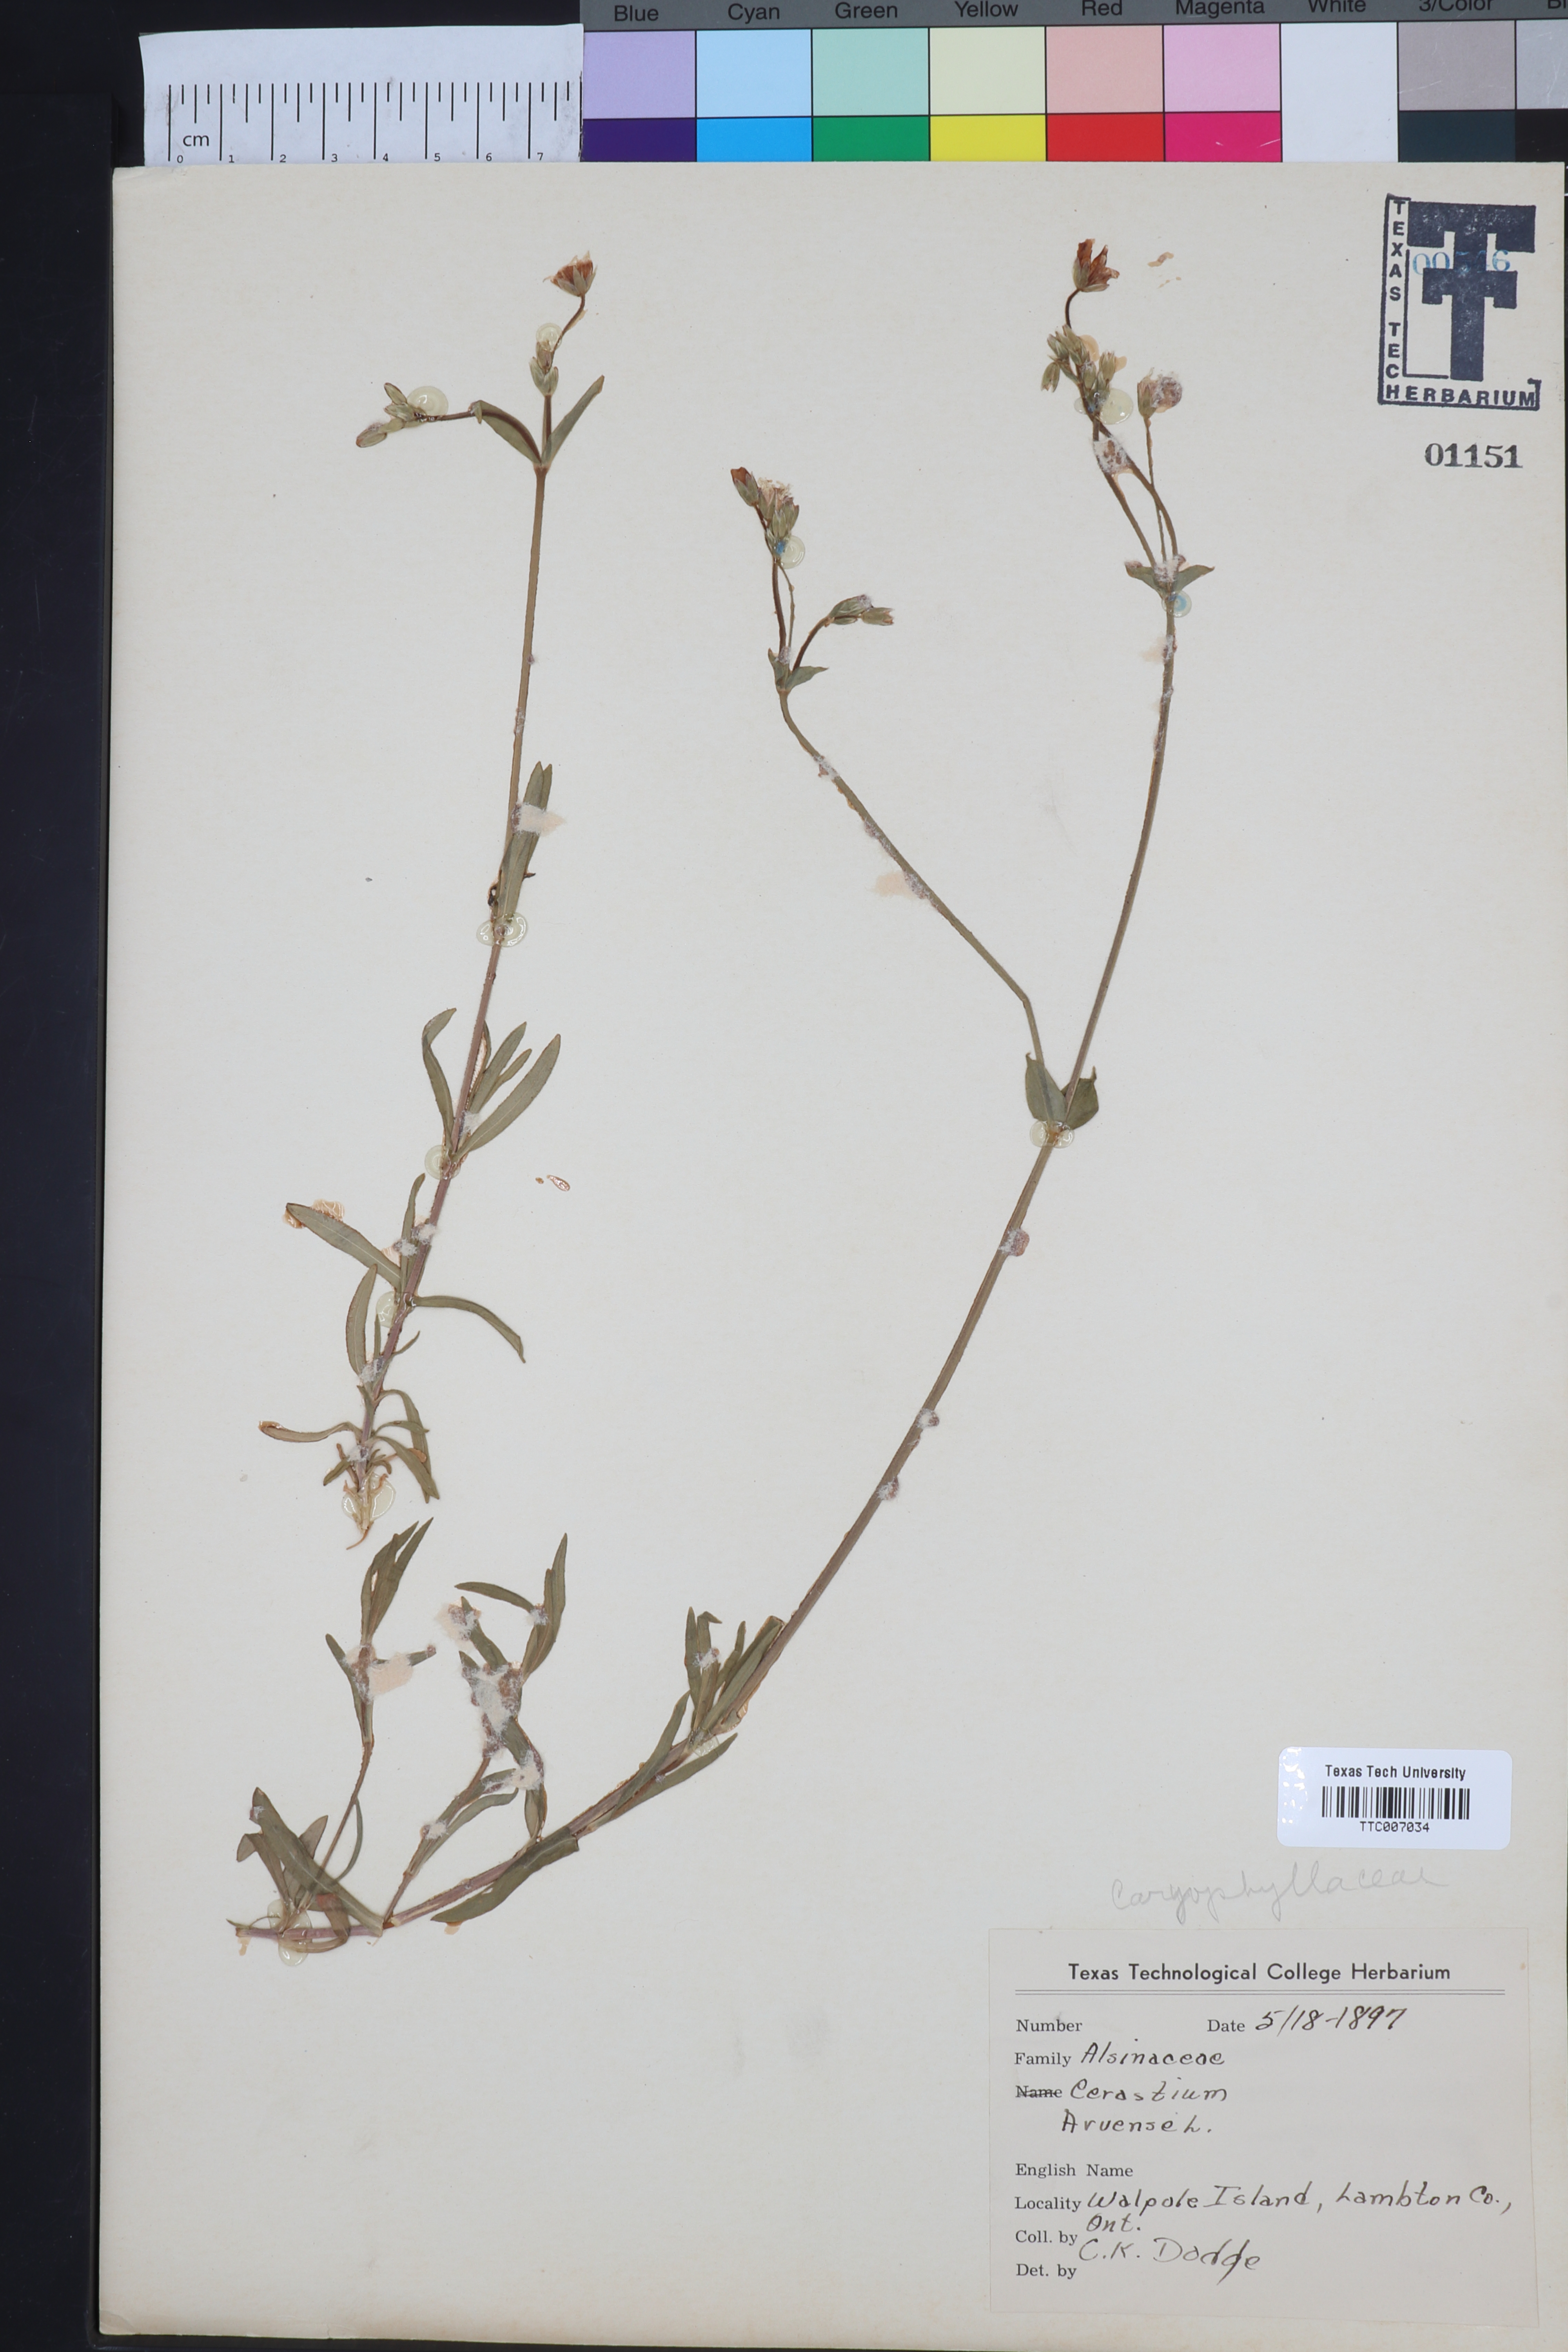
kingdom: Plantae
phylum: Tracheophyta
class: Magnoliopsida
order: Caryophyllales
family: Caryophyllaceae
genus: Cerastium
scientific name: Cerastium arvense
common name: Field mouse-ear
